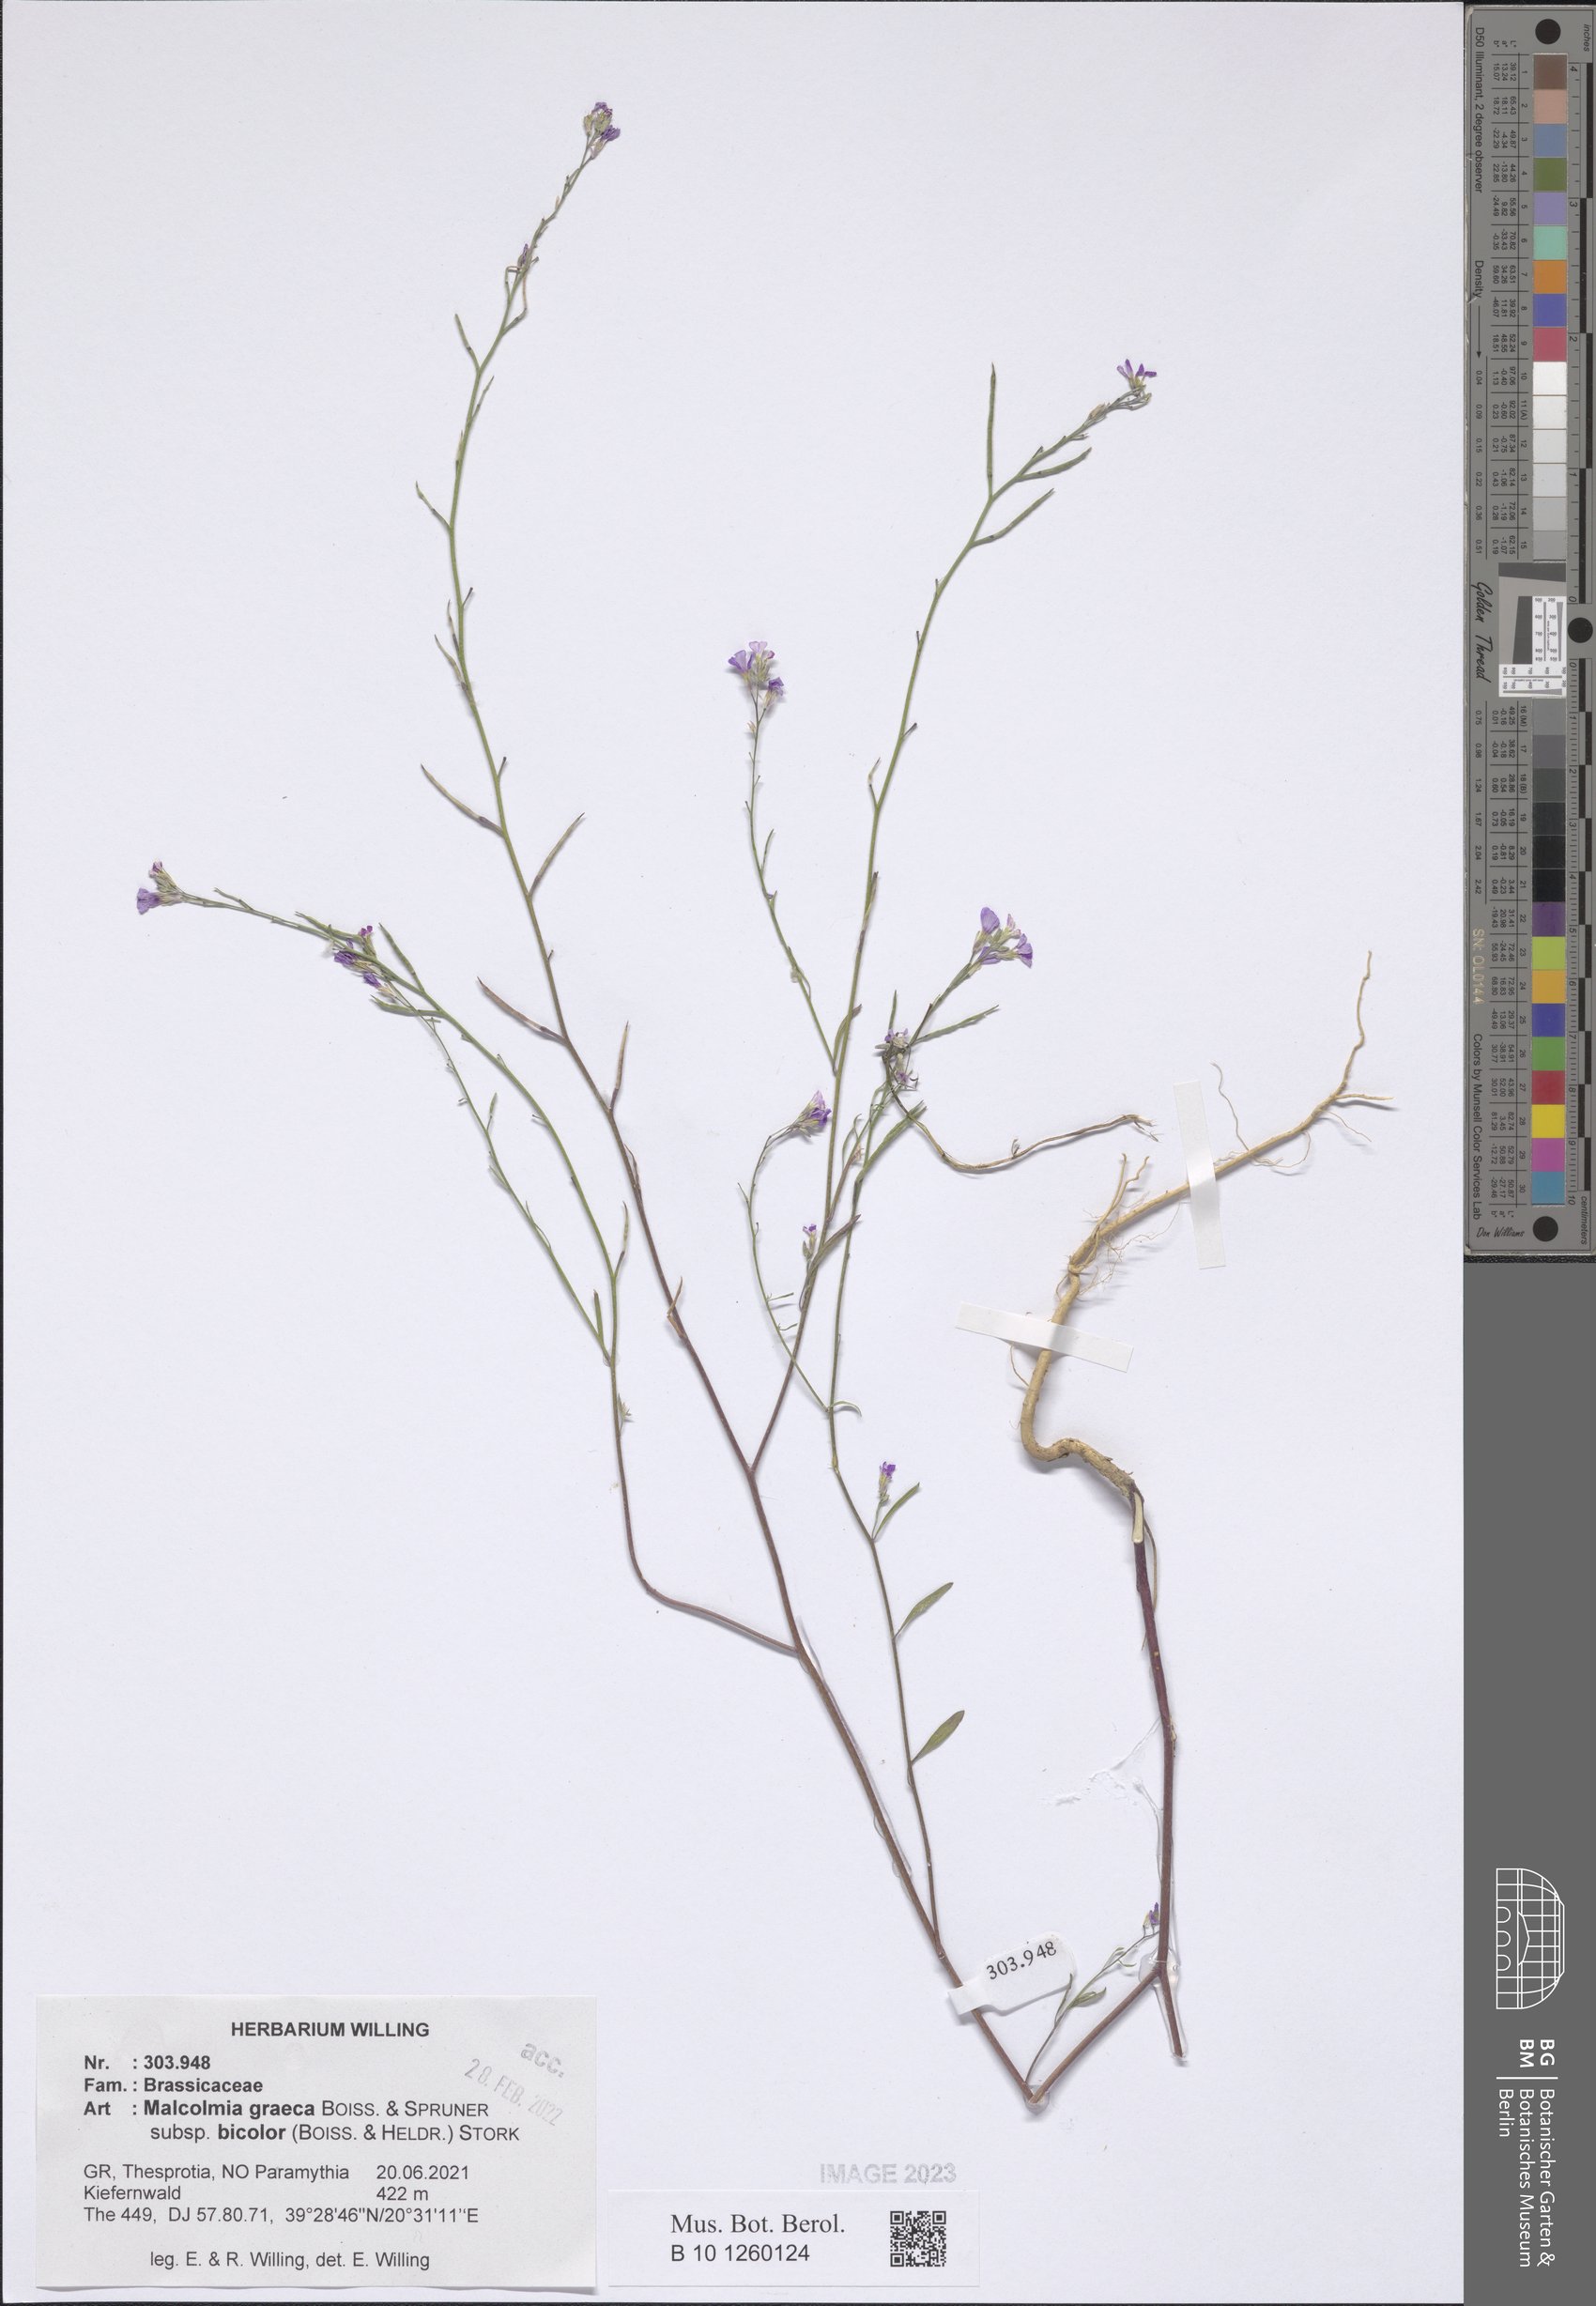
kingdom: Plantae
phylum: Tracheophyta
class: Magnoliopsida
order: Brassicales
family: Brassicaceae
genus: Malcolmia
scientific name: Malcolmia graeca
